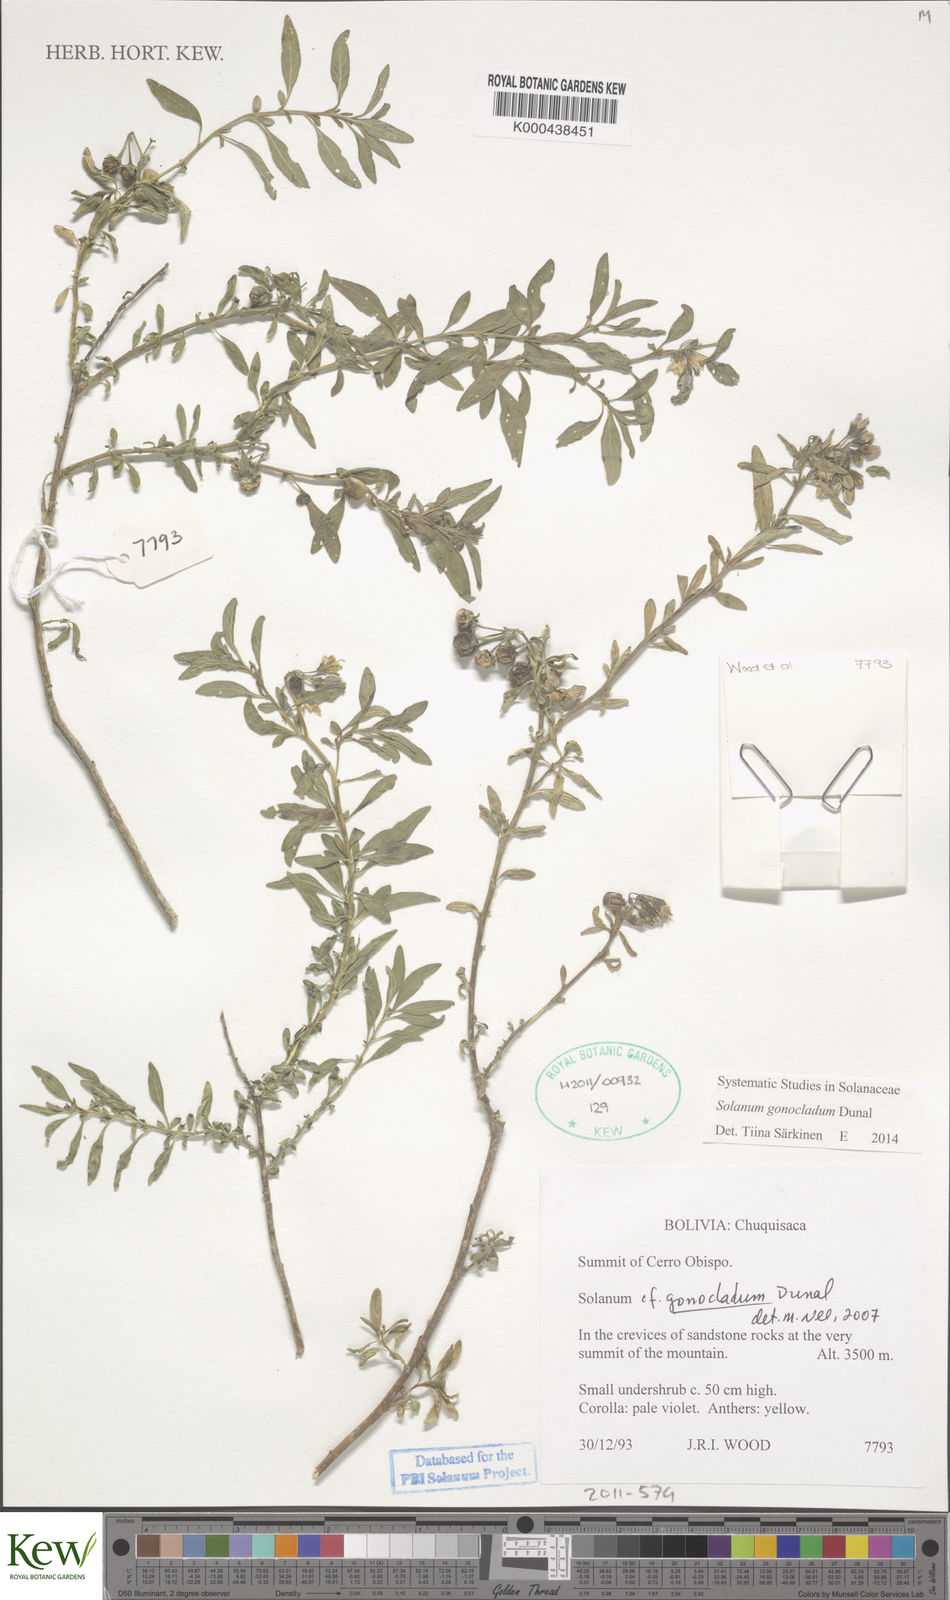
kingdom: Plantae
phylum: Tracheophyta
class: Magnoliopsida
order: Solanales
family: Solanaceae
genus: Solanum
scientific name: Solanum gonocladum
